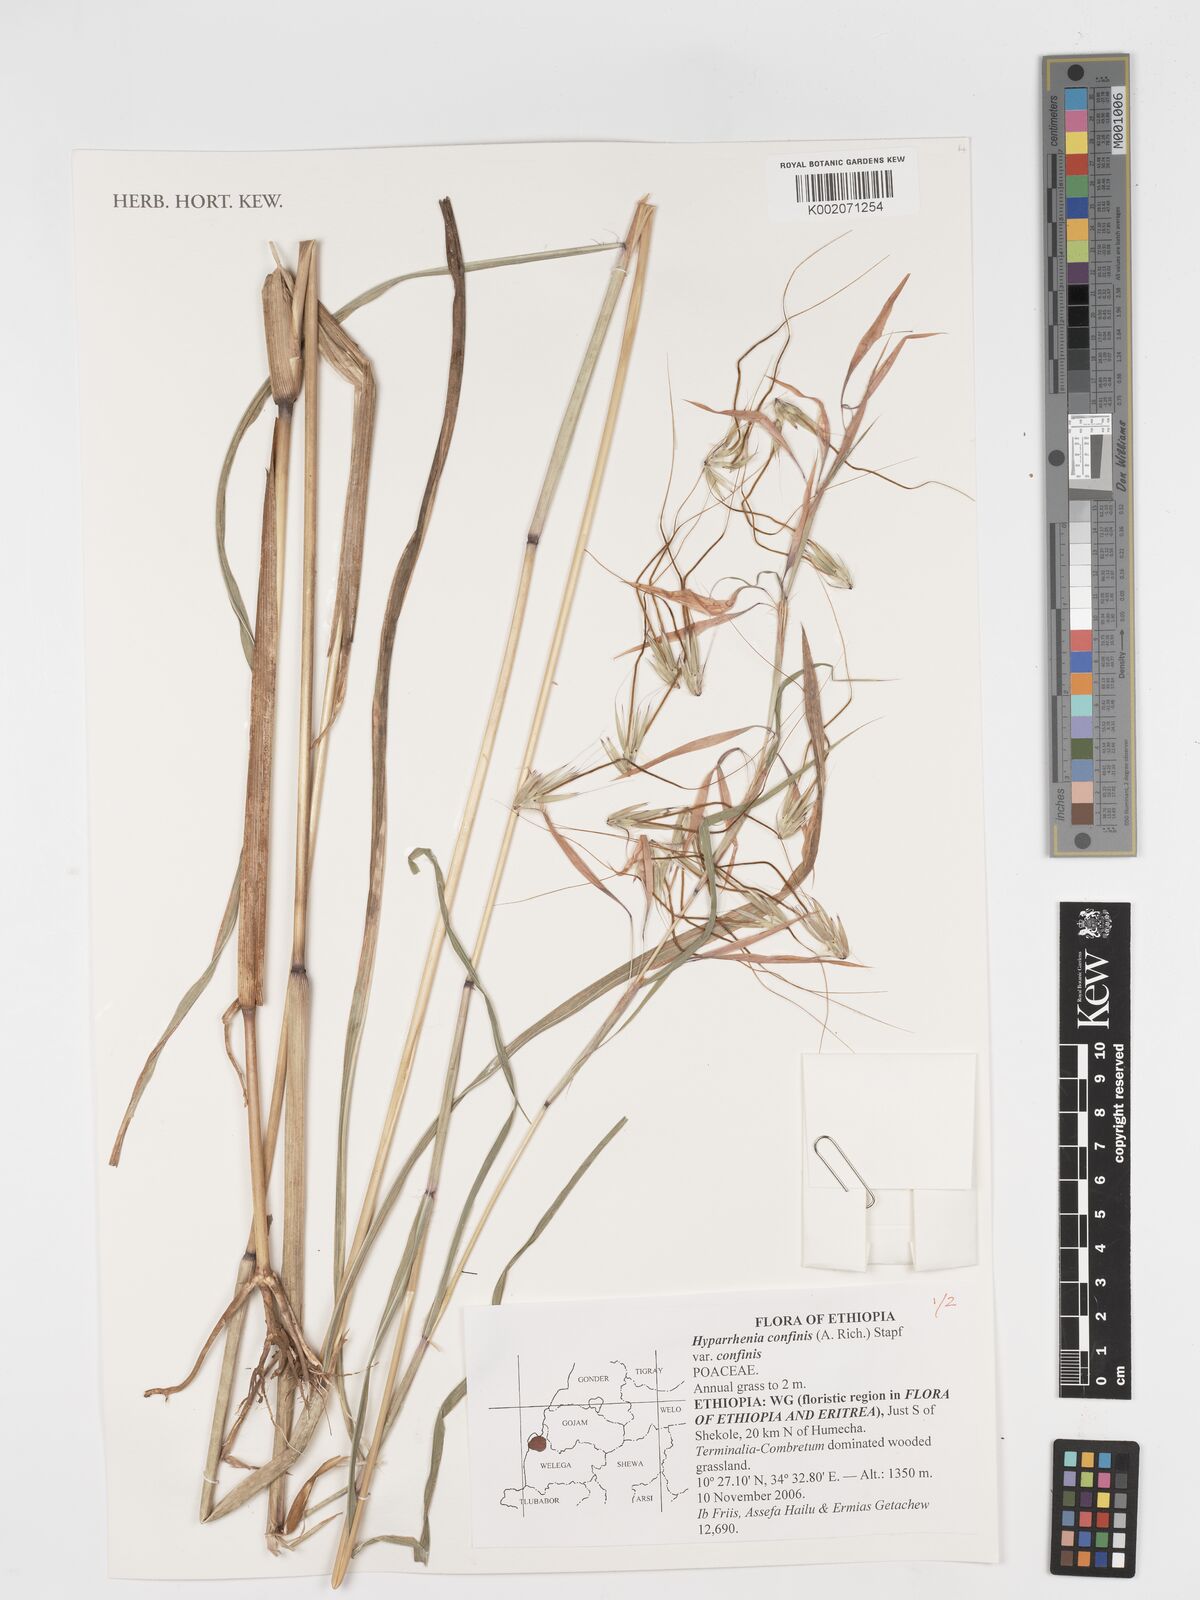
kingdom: Plantae
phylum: Tracheophyta
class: Liliopsida
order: Poales
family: Poaceae
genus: Hyparrhenia
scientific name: Hyparrhenia confinis
